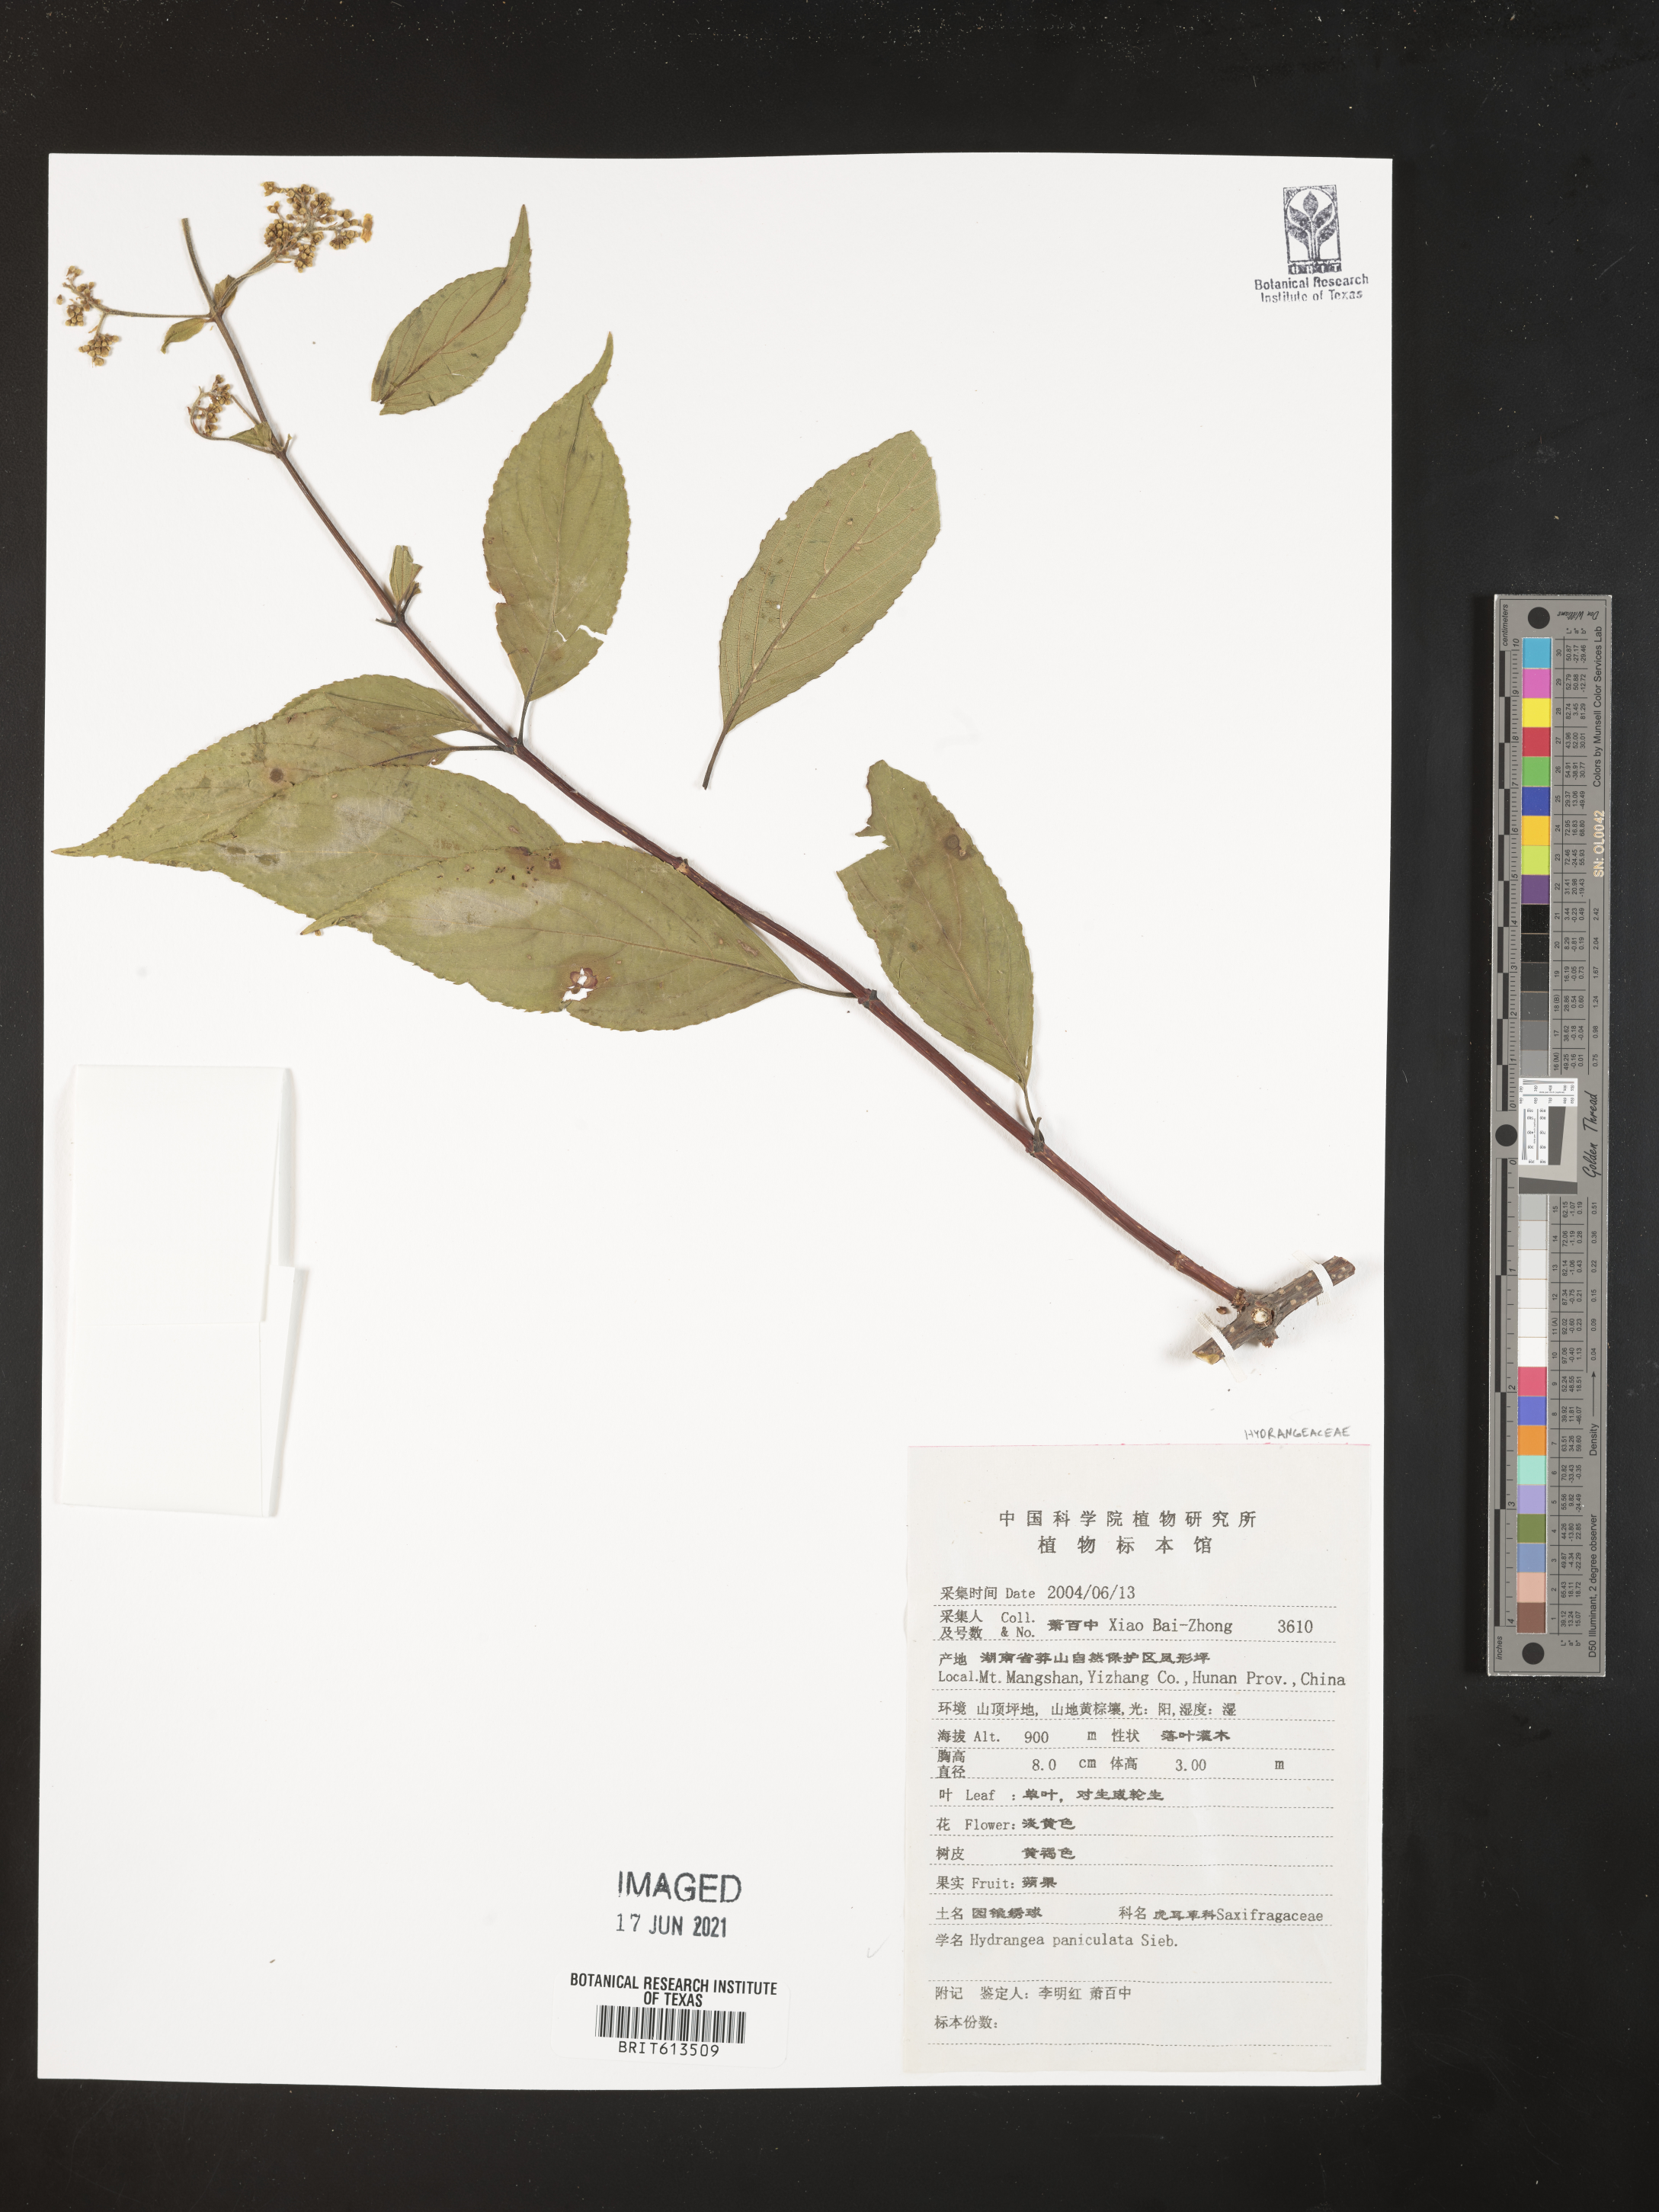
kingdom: Plantae
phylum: Tracheophyta
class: Magnoliopsida
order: Cornales
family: Hydrangeaceae
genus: Hydrangea
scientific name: Hydrangea paniculata
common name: Panicled hydrangea
